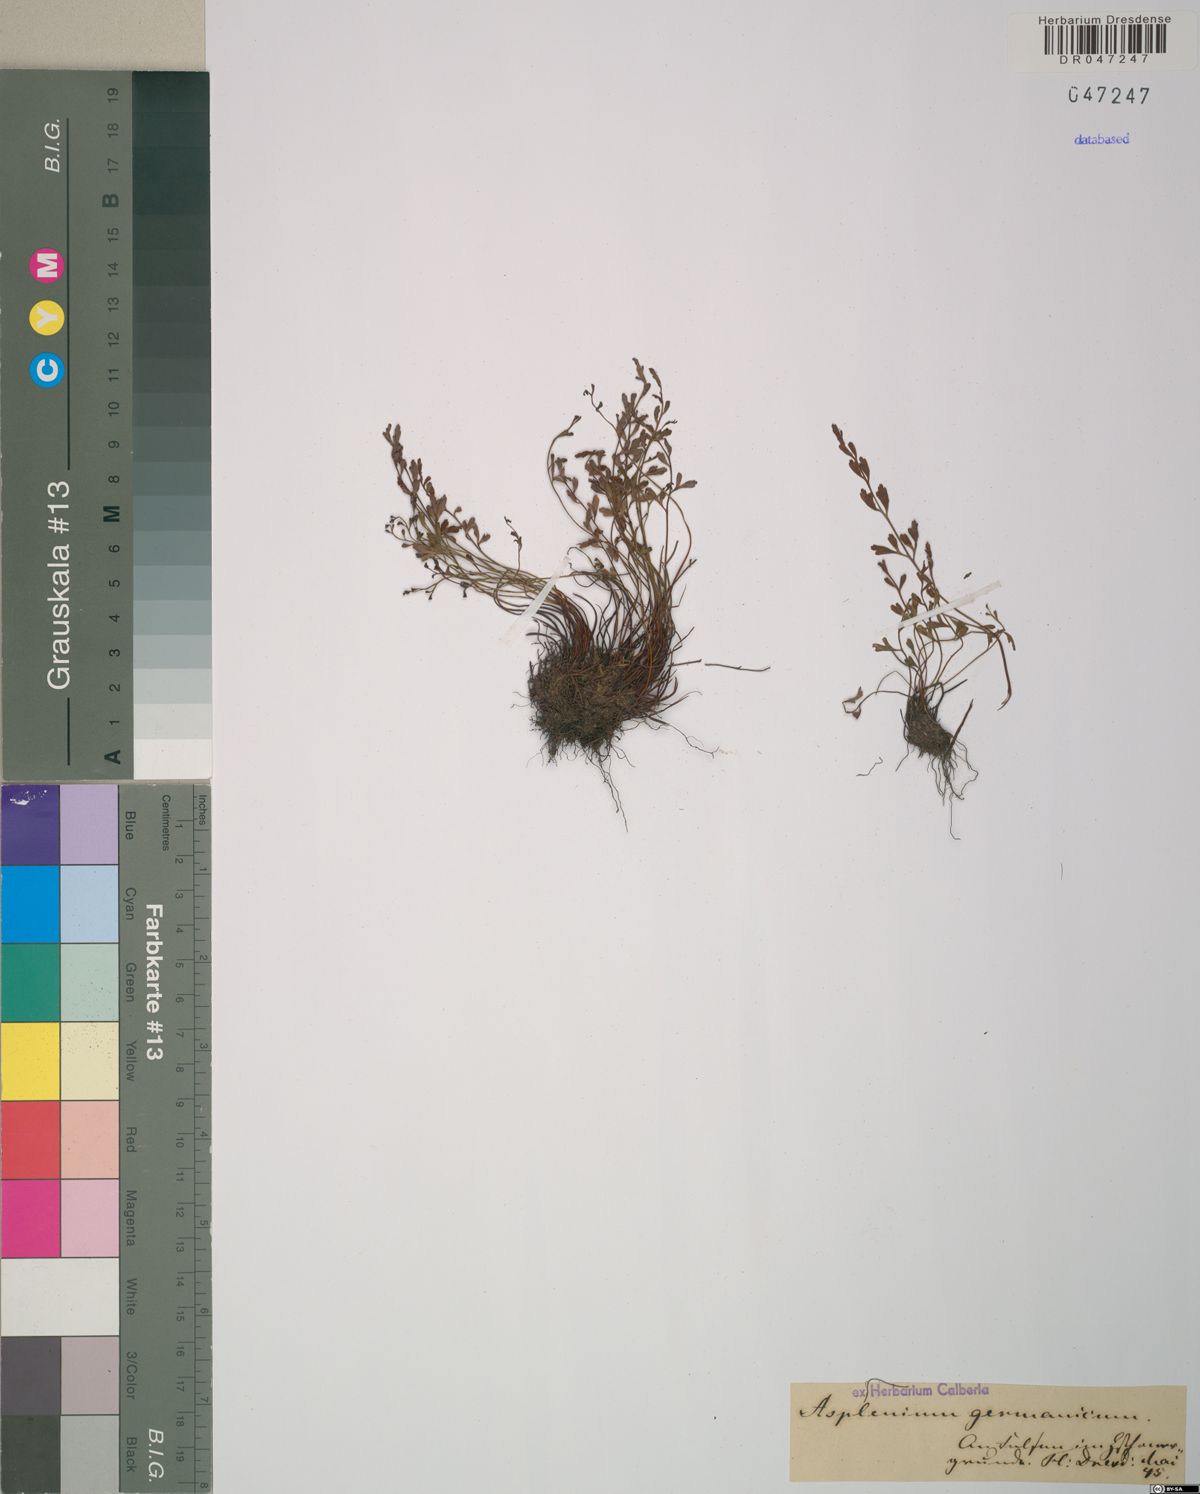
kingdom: Plantae
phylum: Tracheophyta
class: Polypodiopsida
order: Polypodiales
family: Aspleniaceae
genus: Asplenium
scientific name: Asplenium
